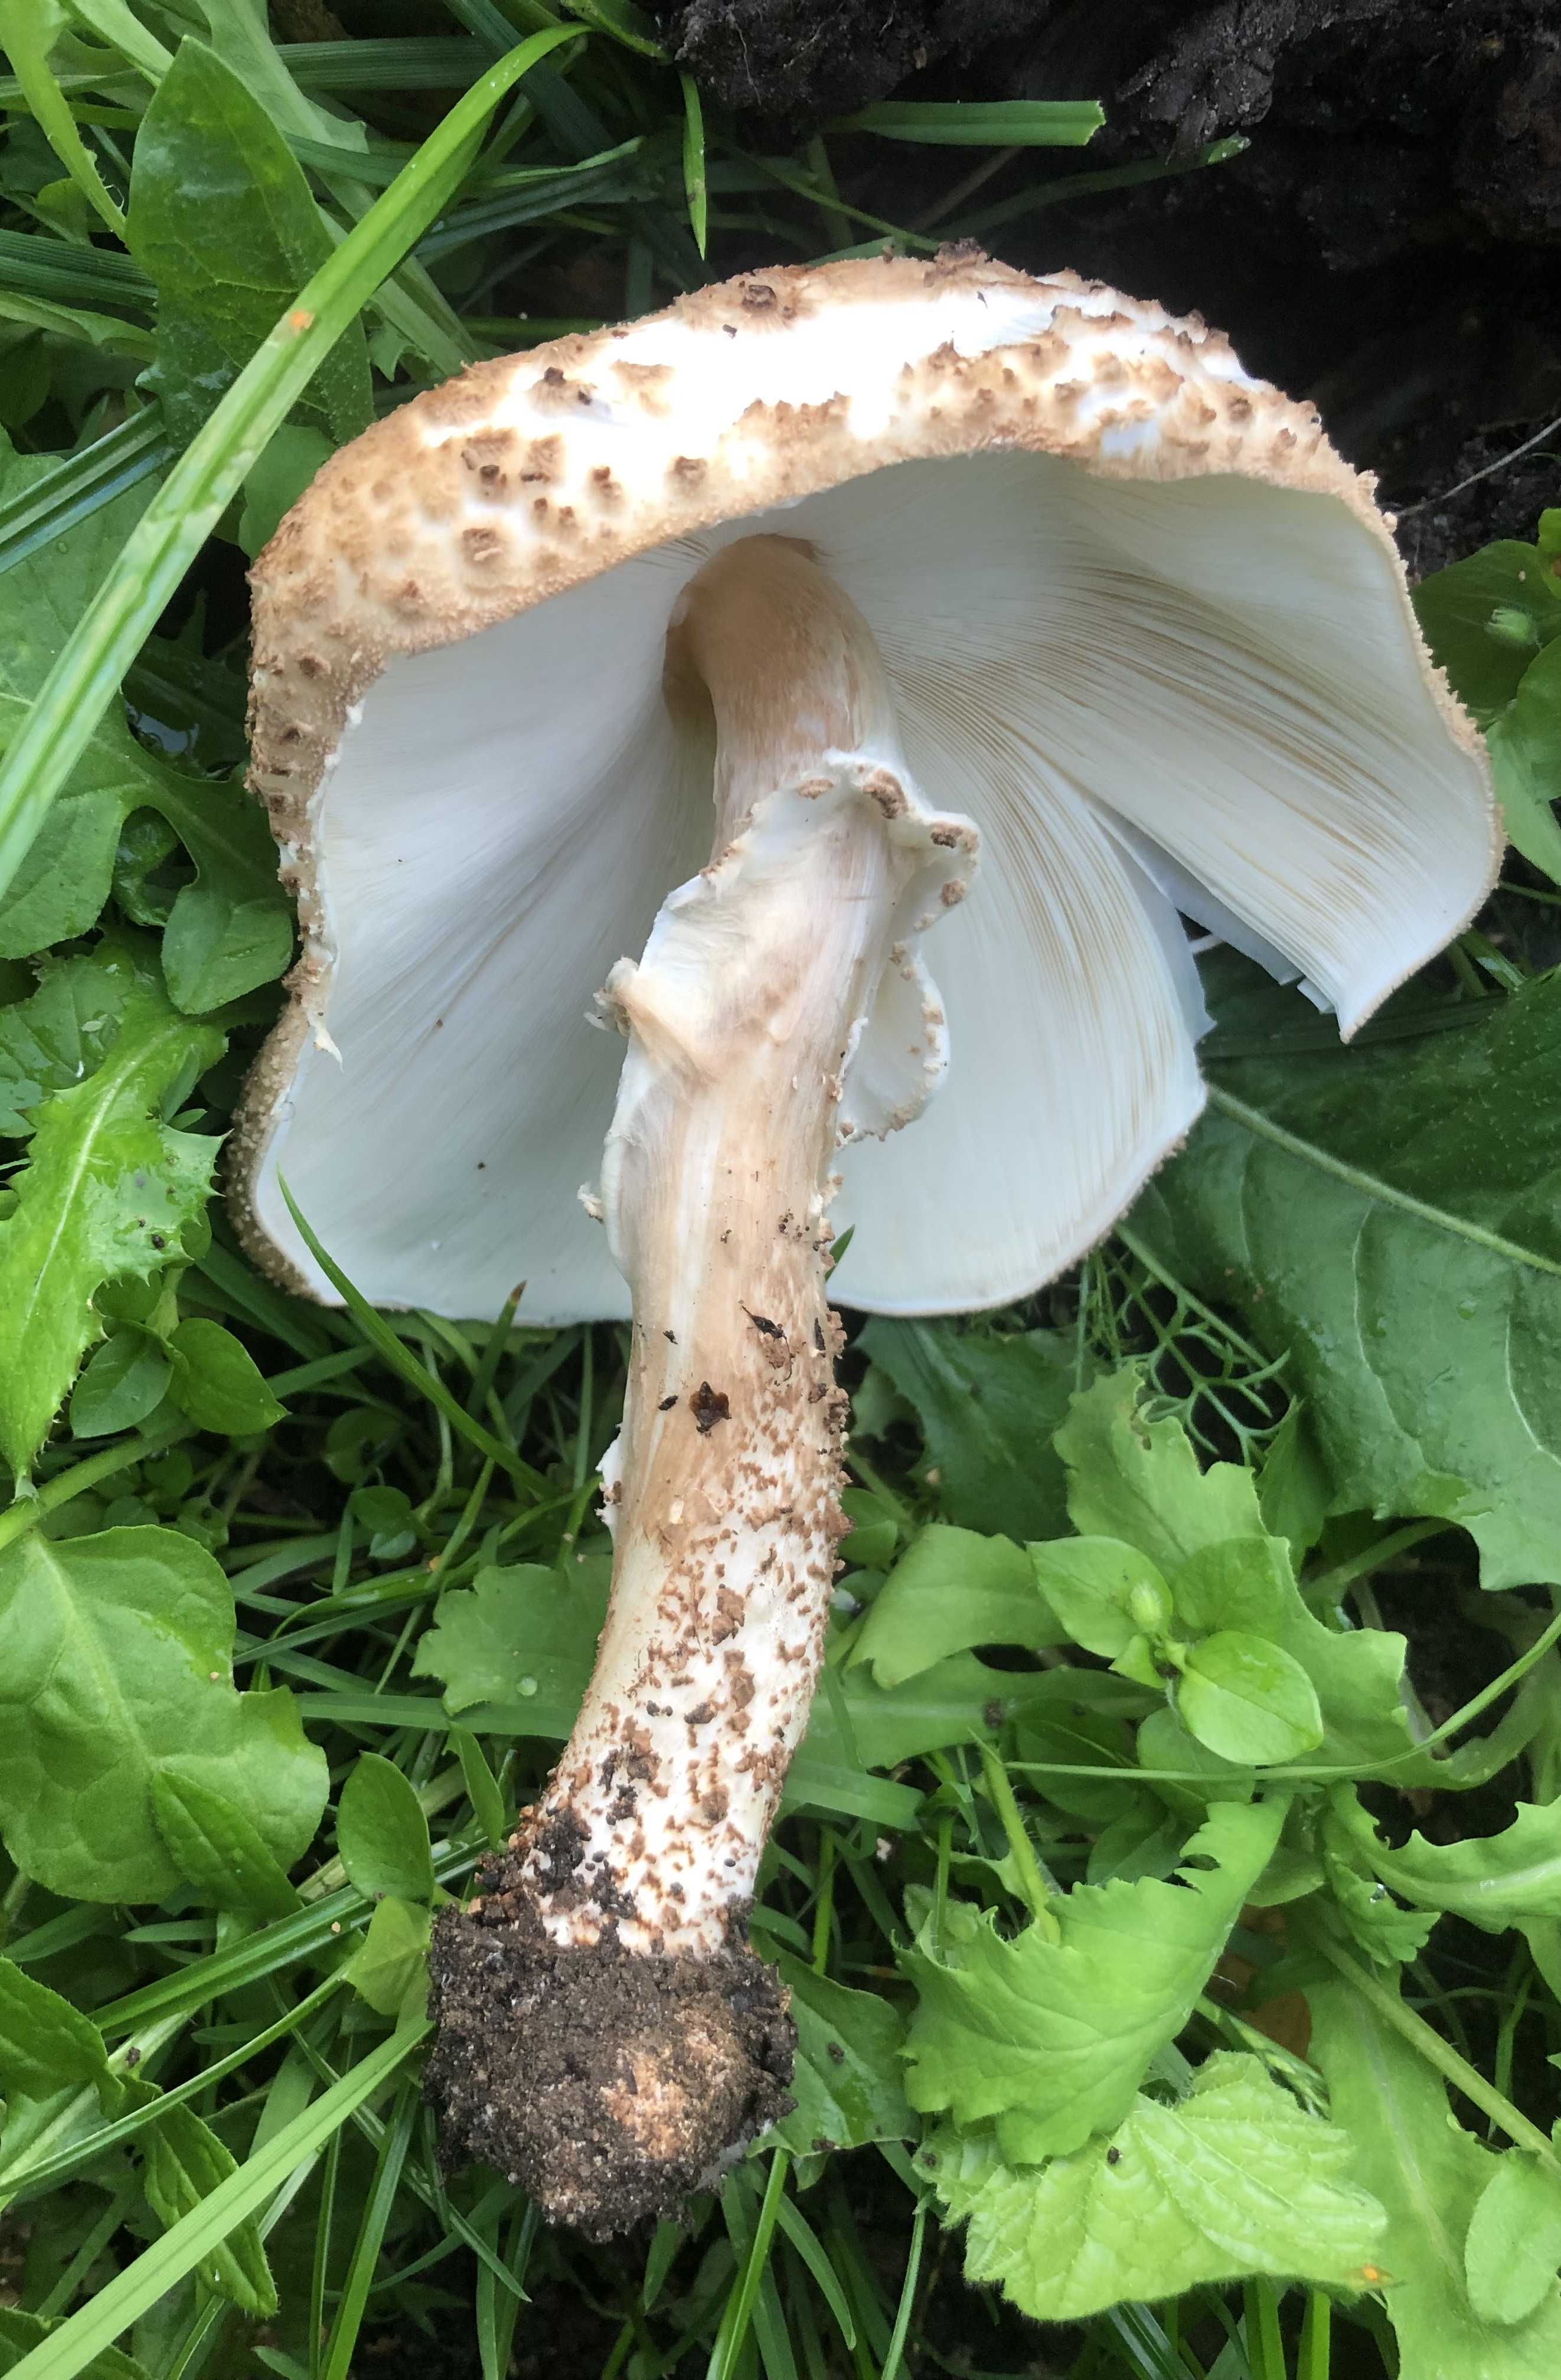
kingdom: Fungi
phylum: Basidiomycota
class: Agaricomycetes
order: Agaricales
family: Agaricaceae
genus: Echinoderma
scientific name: Echinoderma asperum
